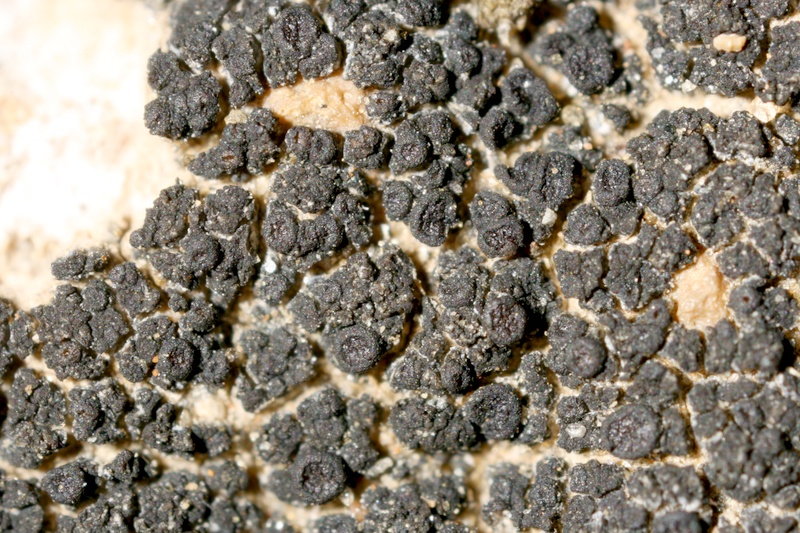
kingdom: Fungi
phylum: Ascomycota
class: Lichinomycetes
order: Lichinales
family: Lichinaceae
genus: Psorotichia
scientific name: Psorotichia
